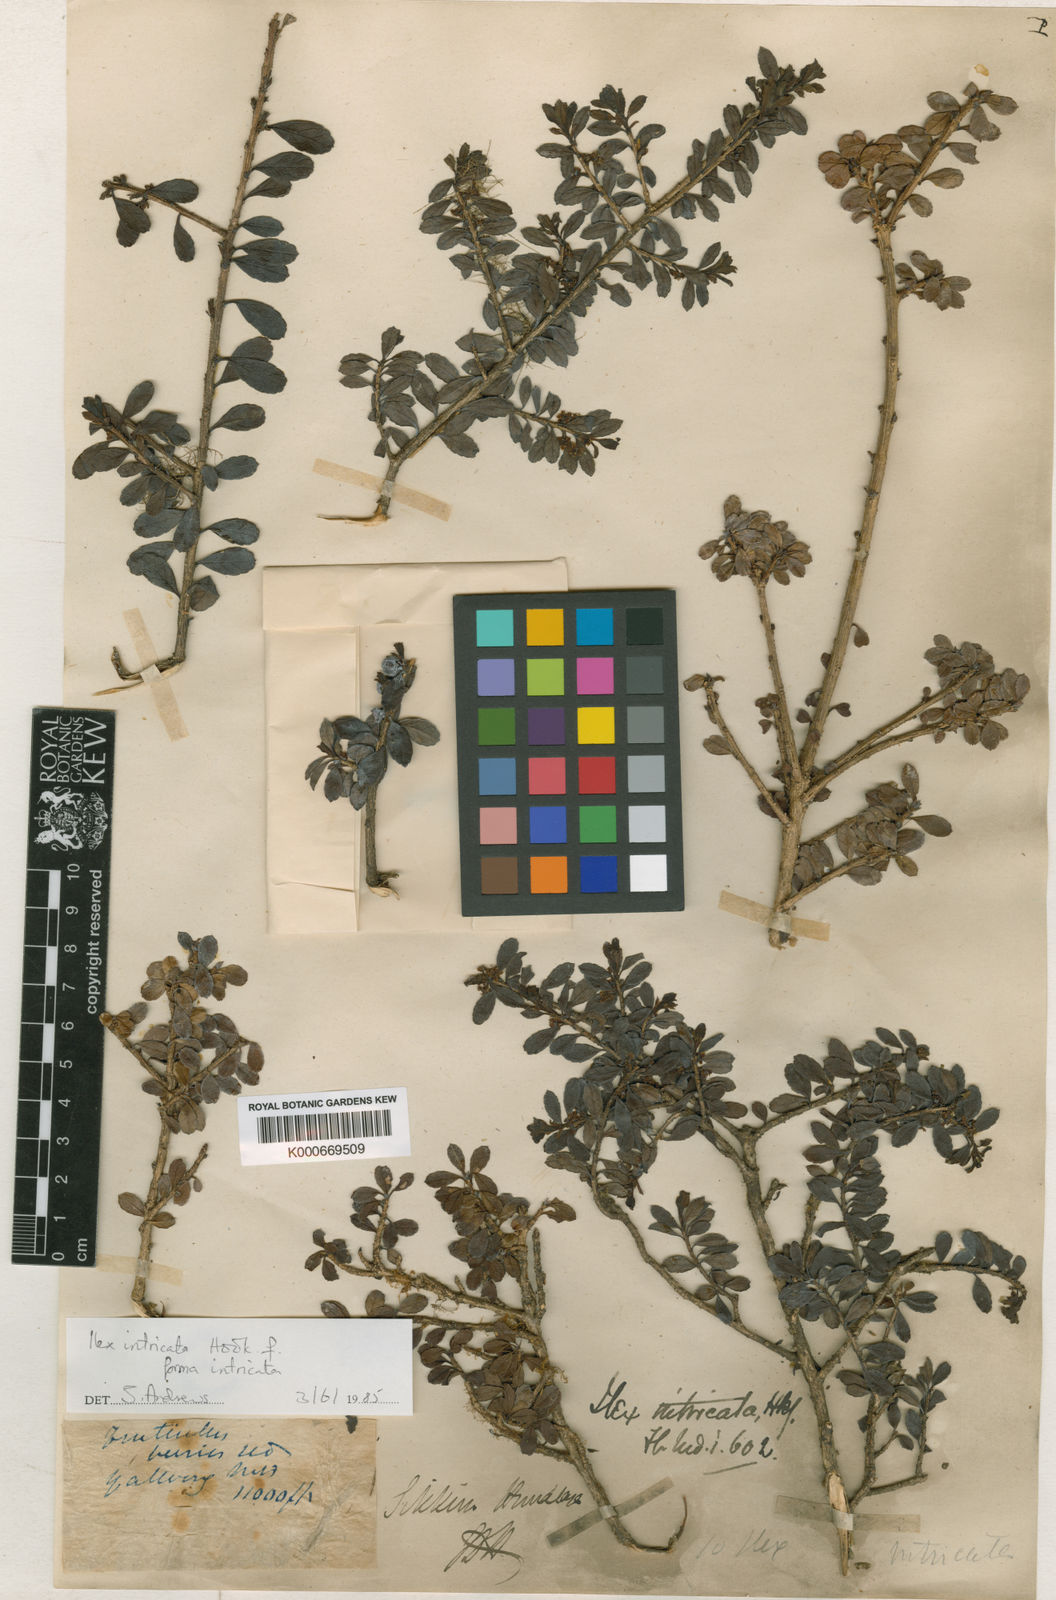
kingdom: Plantae
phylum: Tracheophyta
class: Magnoliopsida
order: Aquifoliales
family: Aquifoliaceae
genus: Ilex
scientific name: Ilex intricata
